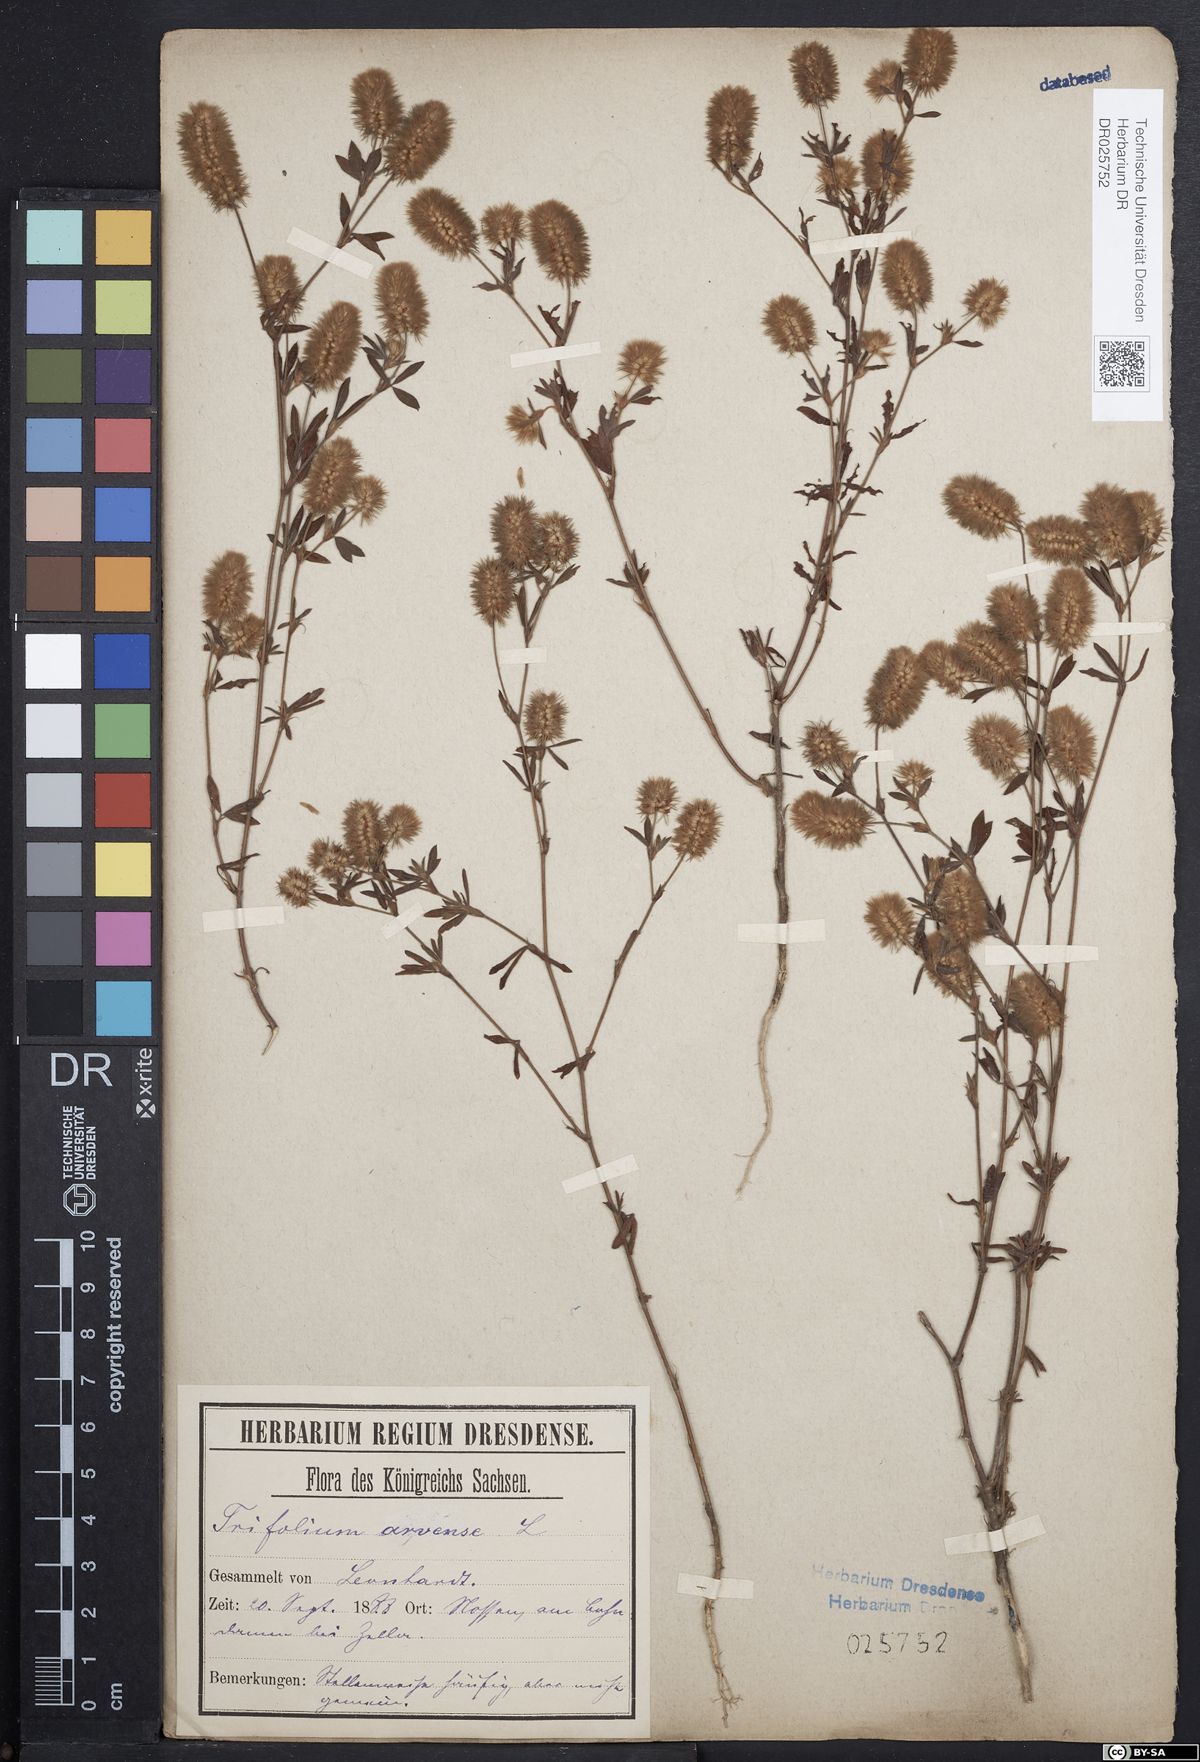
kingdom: Plantae
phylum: Tracheophyta
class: Magnoliopsida
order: Fabales
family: Fabaceae
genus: Trifolium
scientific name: Trifolium arvense
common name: Hare's-foot clover
